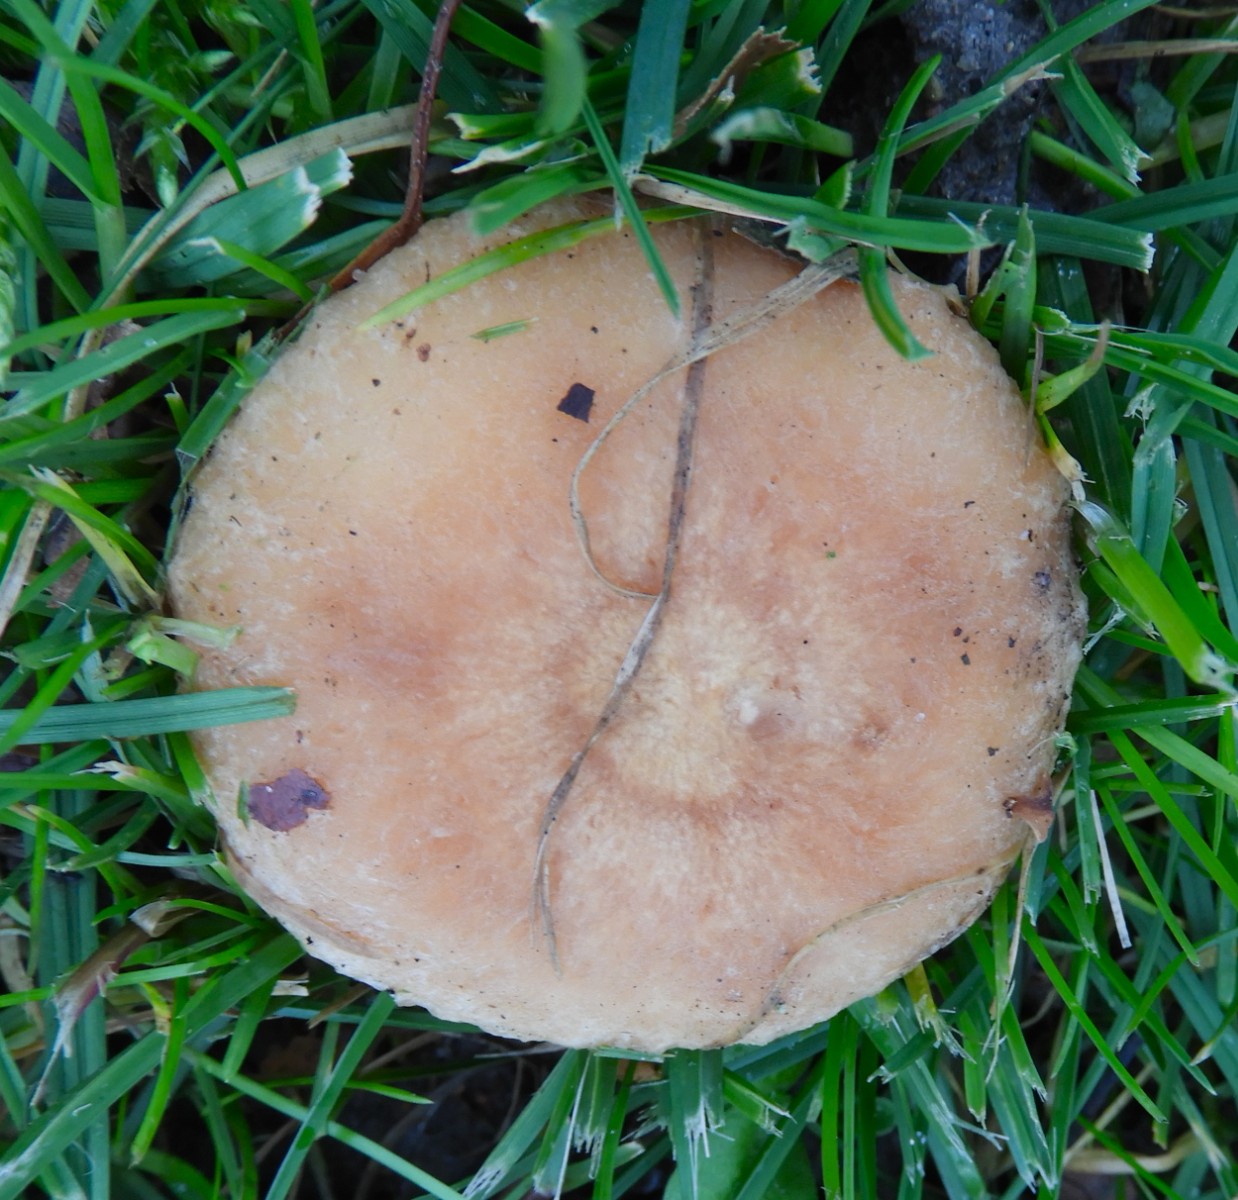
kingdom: Fungi
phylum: Basidiomycota
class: Agaricomycetes
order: Russulales
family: Russulaceae
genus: Lactarius
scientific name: Lactarius pubescens
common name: dunet mælkehat
